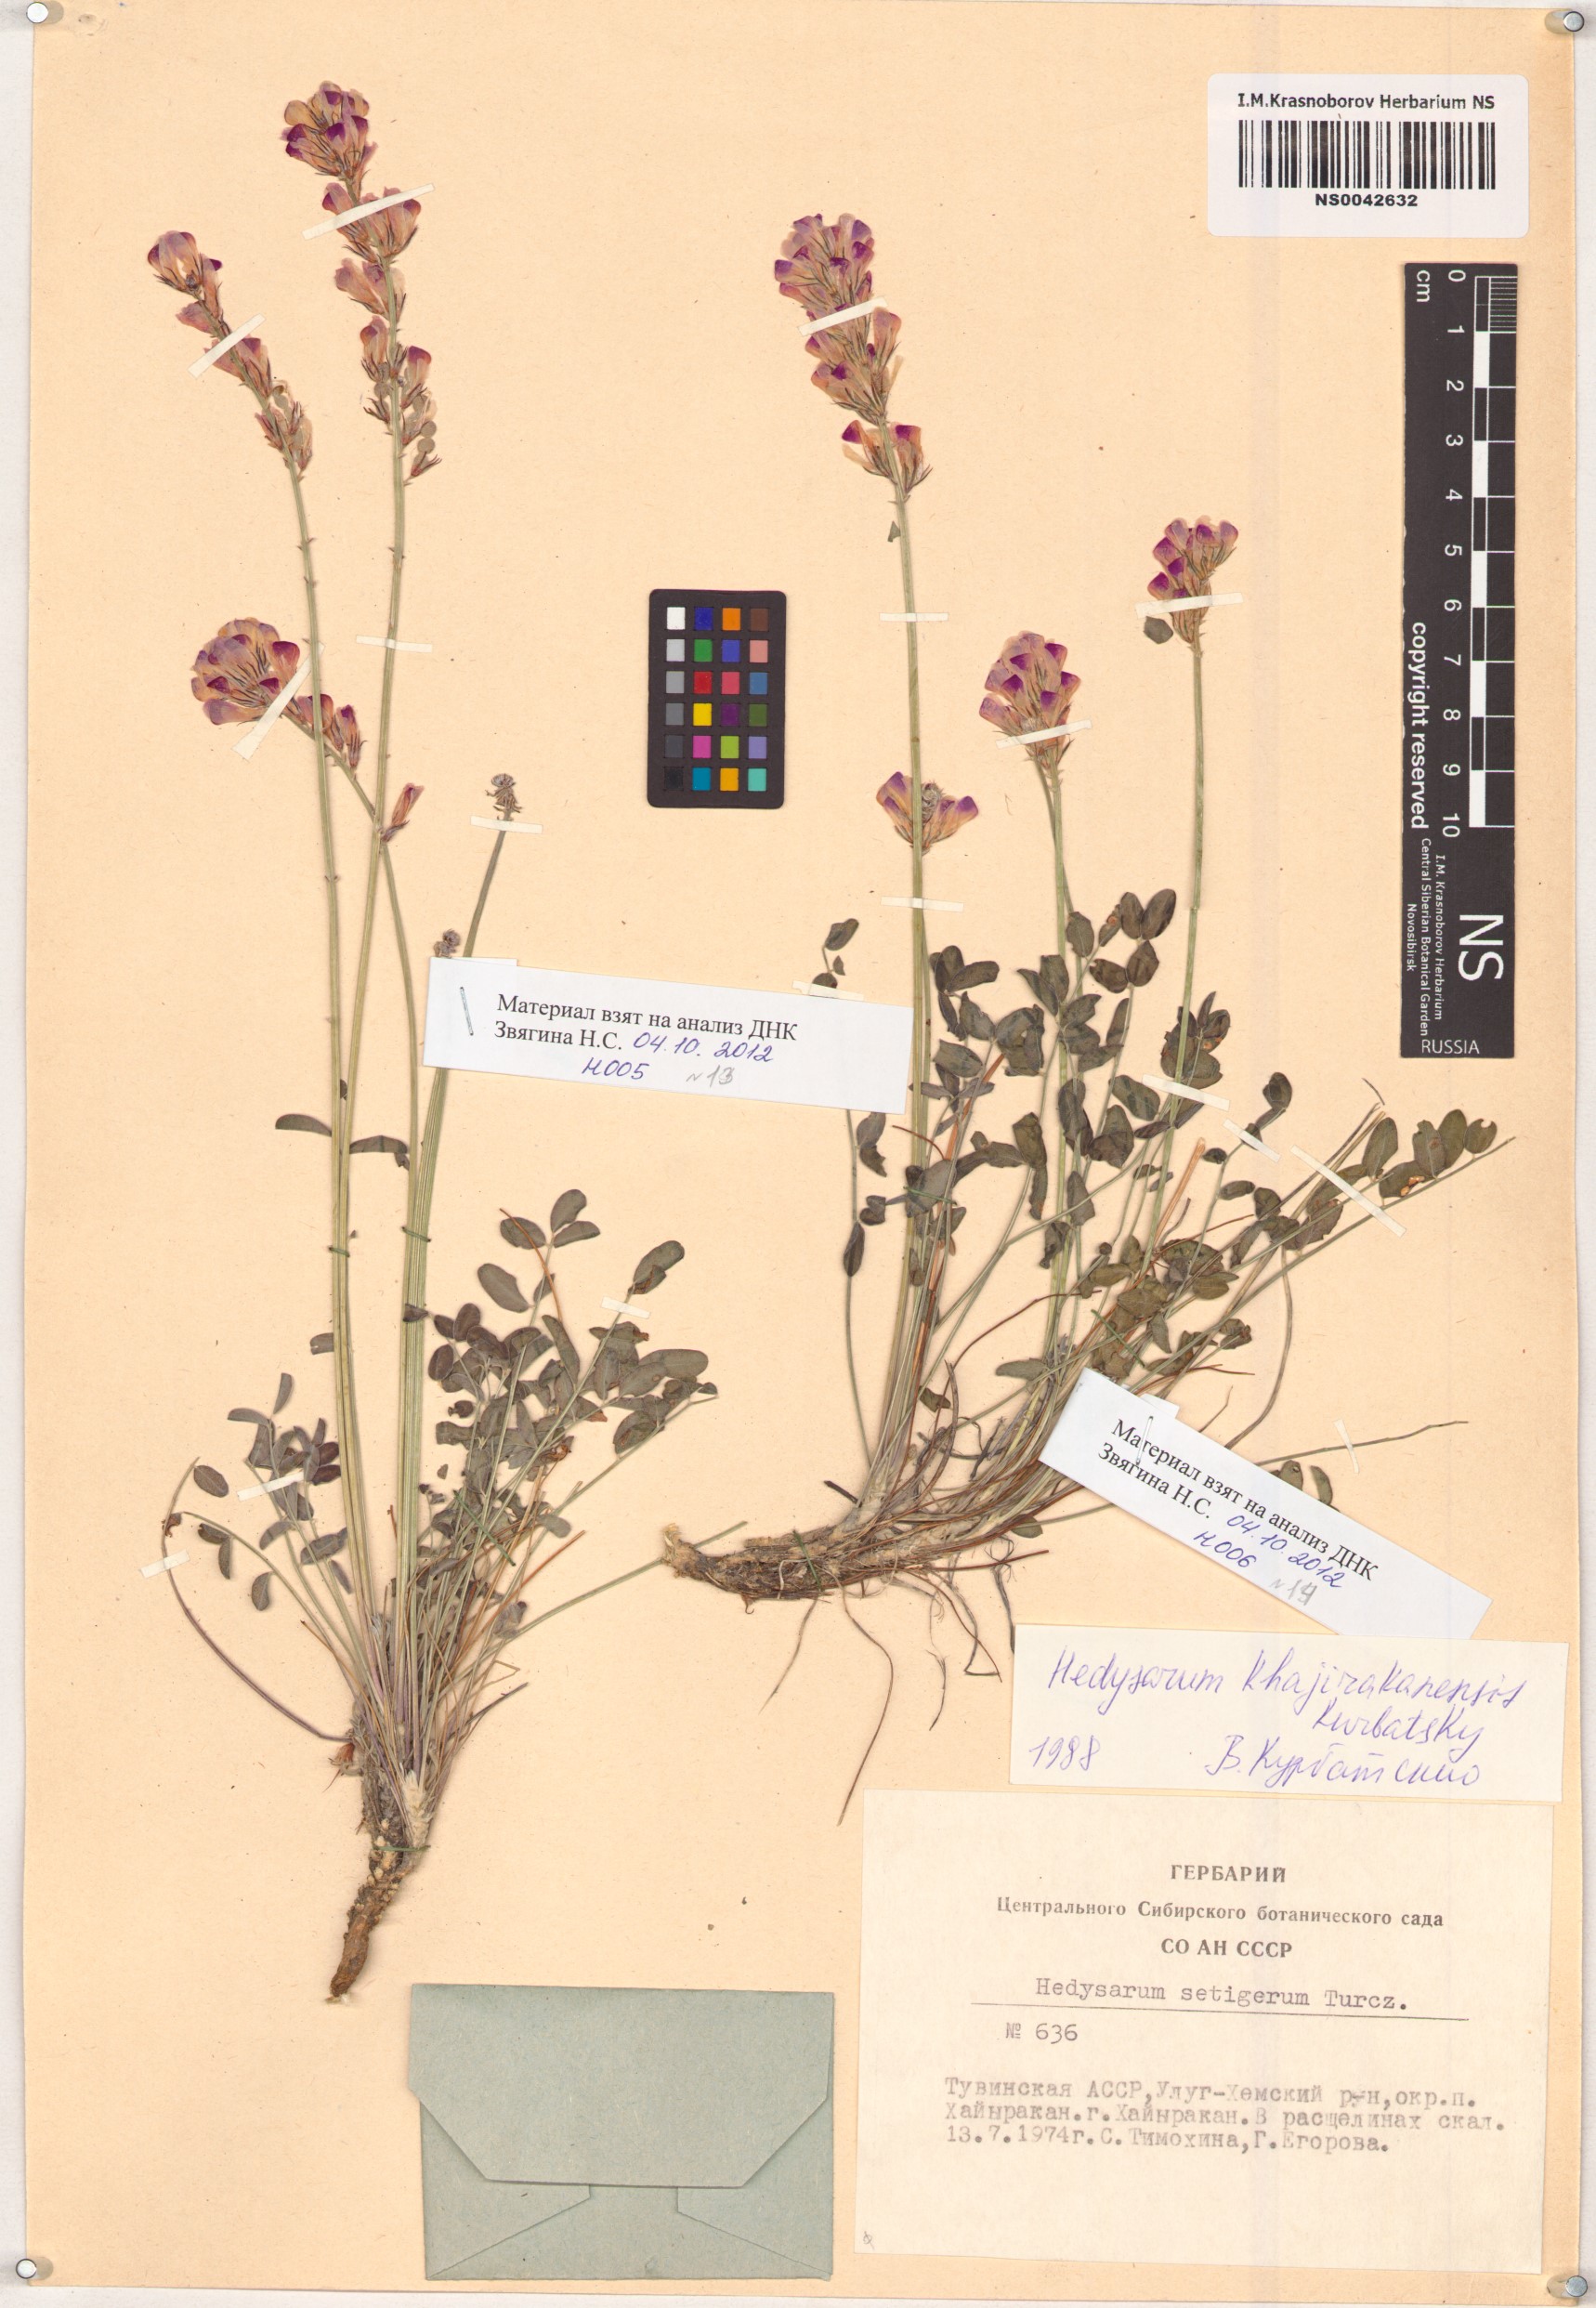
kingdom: Plantae
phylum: Tracheophyta
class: Magnoliopsida
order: Fabales
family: Fabaceae
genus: Hedysarum
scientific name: Hedysarum setigerum
